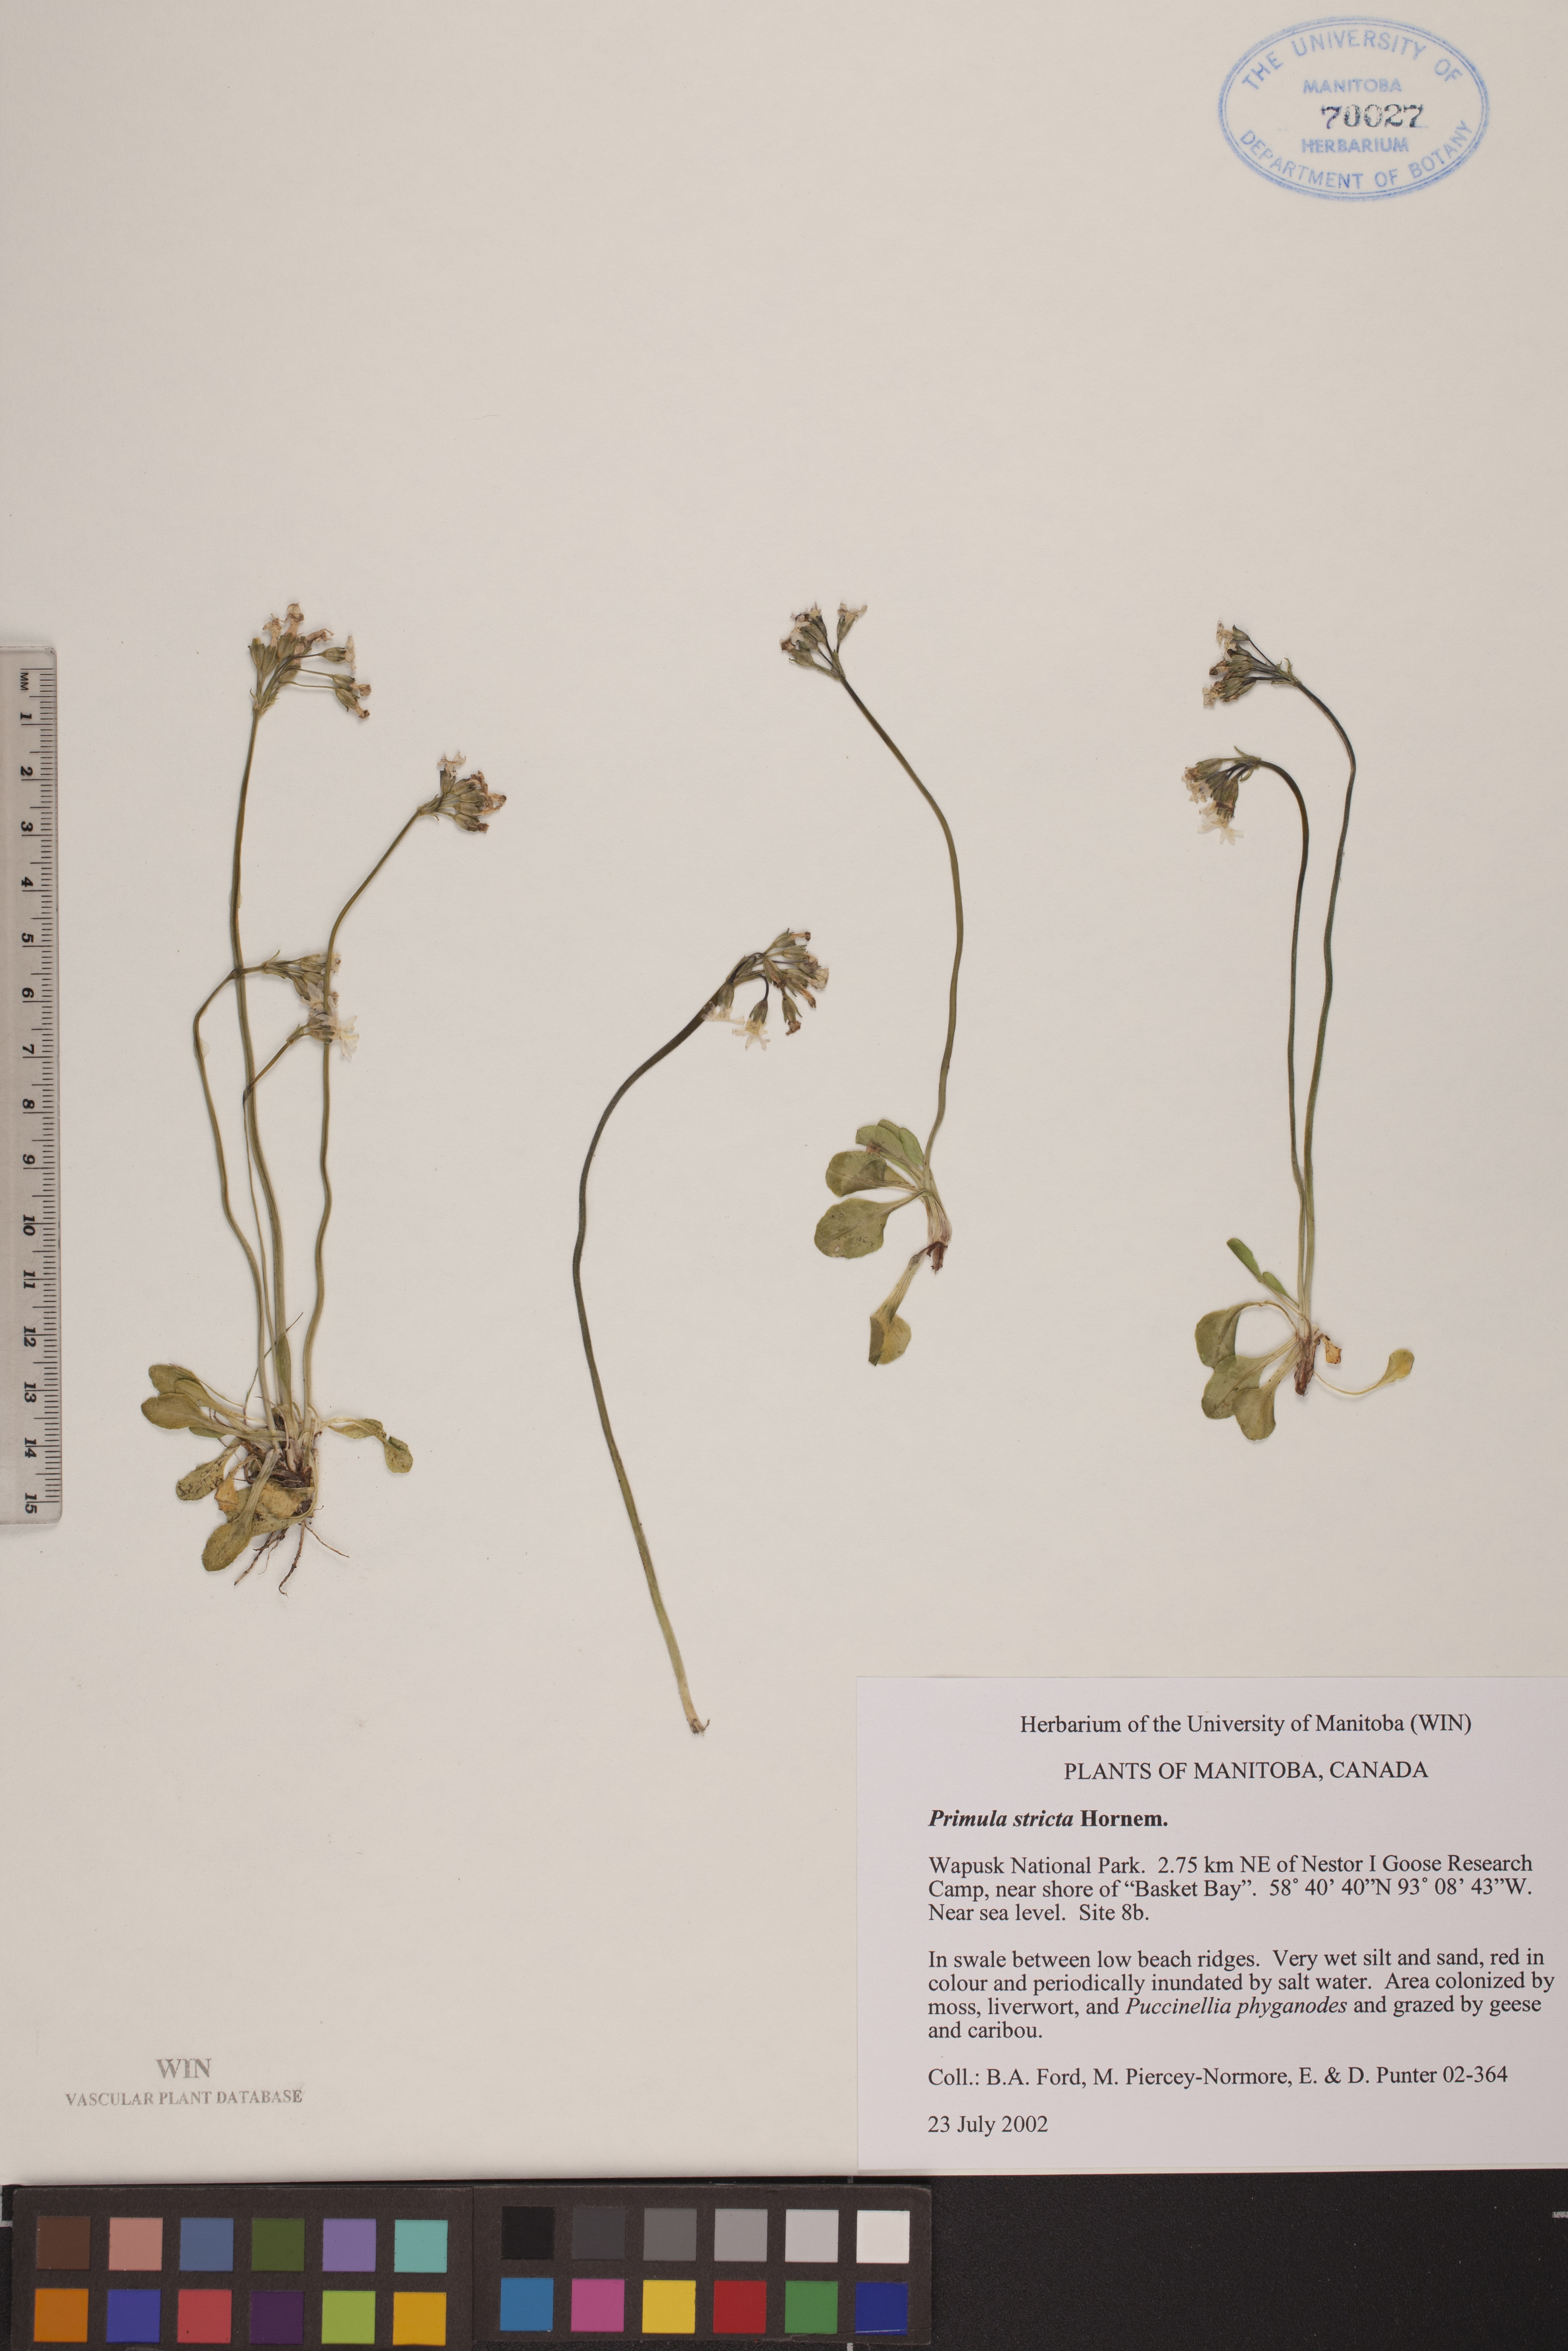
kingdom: Plantae
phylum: Tracheophyta
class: Magnoliopsida
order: Ericales
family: Primulaceae
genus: Primula
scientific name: Primula stricta
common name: Coastal primrose
